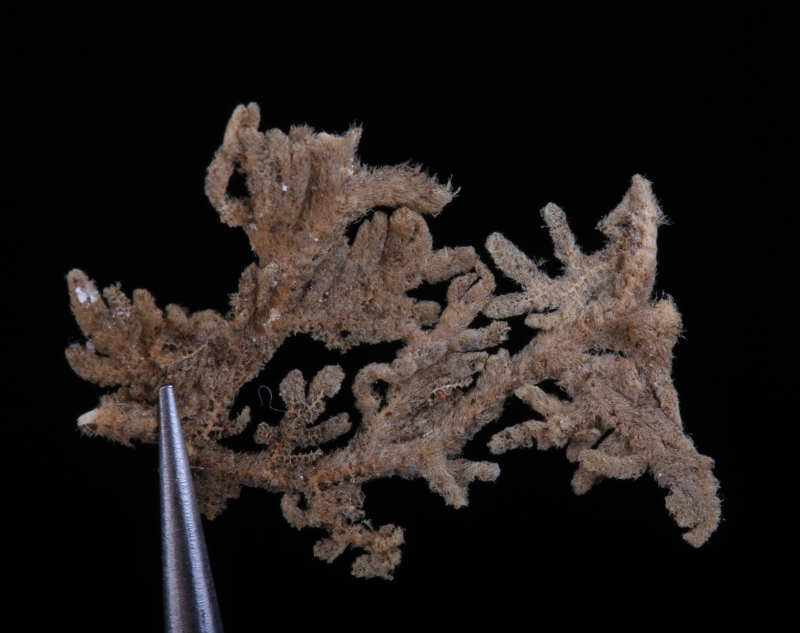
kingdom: Plantae
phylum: Marchantiophyta
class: Jungermanniopsida
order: Jungermanniales
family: Trichocoleaceae
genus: Trichocolea
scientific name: Trichocolea pluma
